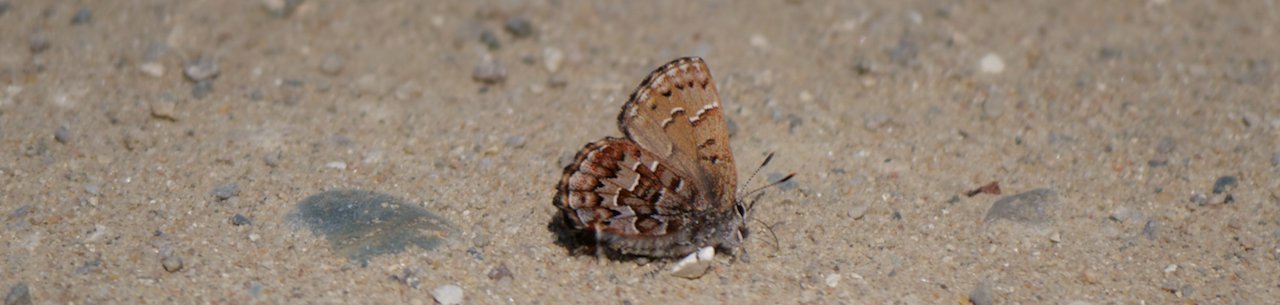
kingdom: Animalia
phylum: Arthropoda
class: Insecta
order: Lepidoptera
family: Lycaenidae
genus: Incisalia
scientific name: Incisalia niphon
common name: Eastern Pine Elfin
